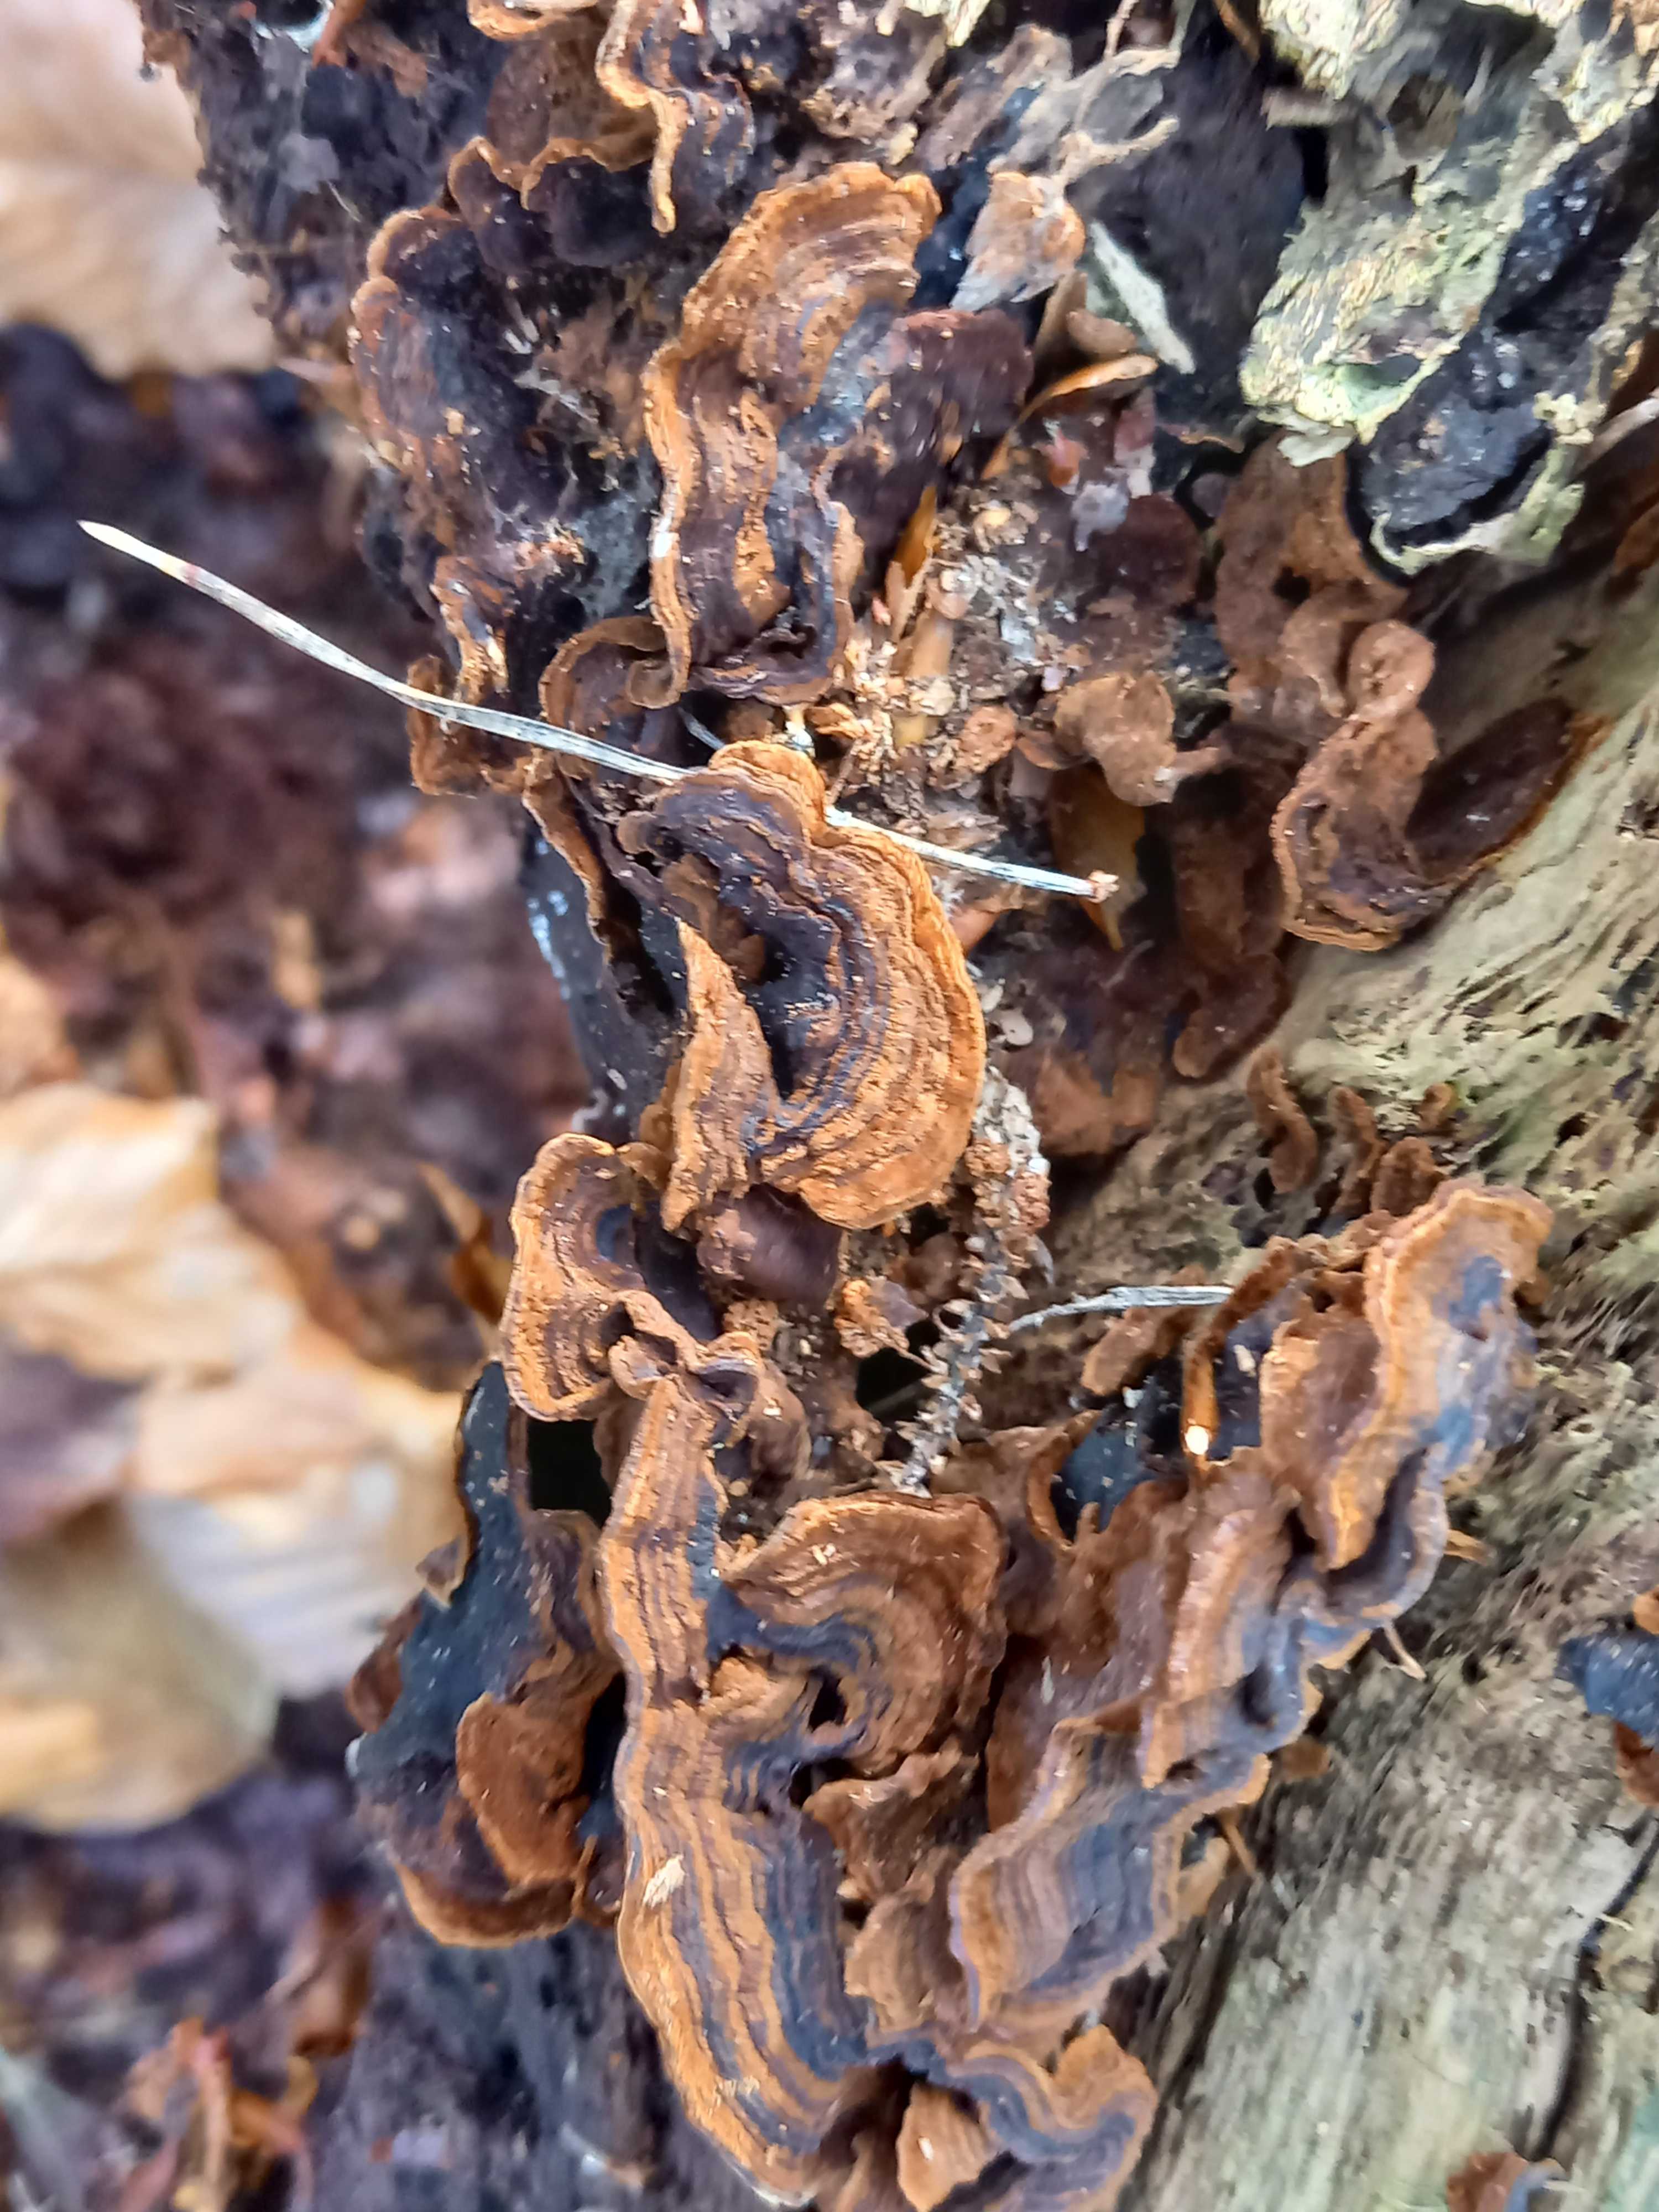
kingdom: Fungi
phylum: Basidiomycota
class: Agaricomycetes
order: Hymenochaetales
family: Hymenochaetaceae
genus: Hymenochaete
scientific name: Hymenochaete rubiginosa
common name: stiv ruslædersvamp
